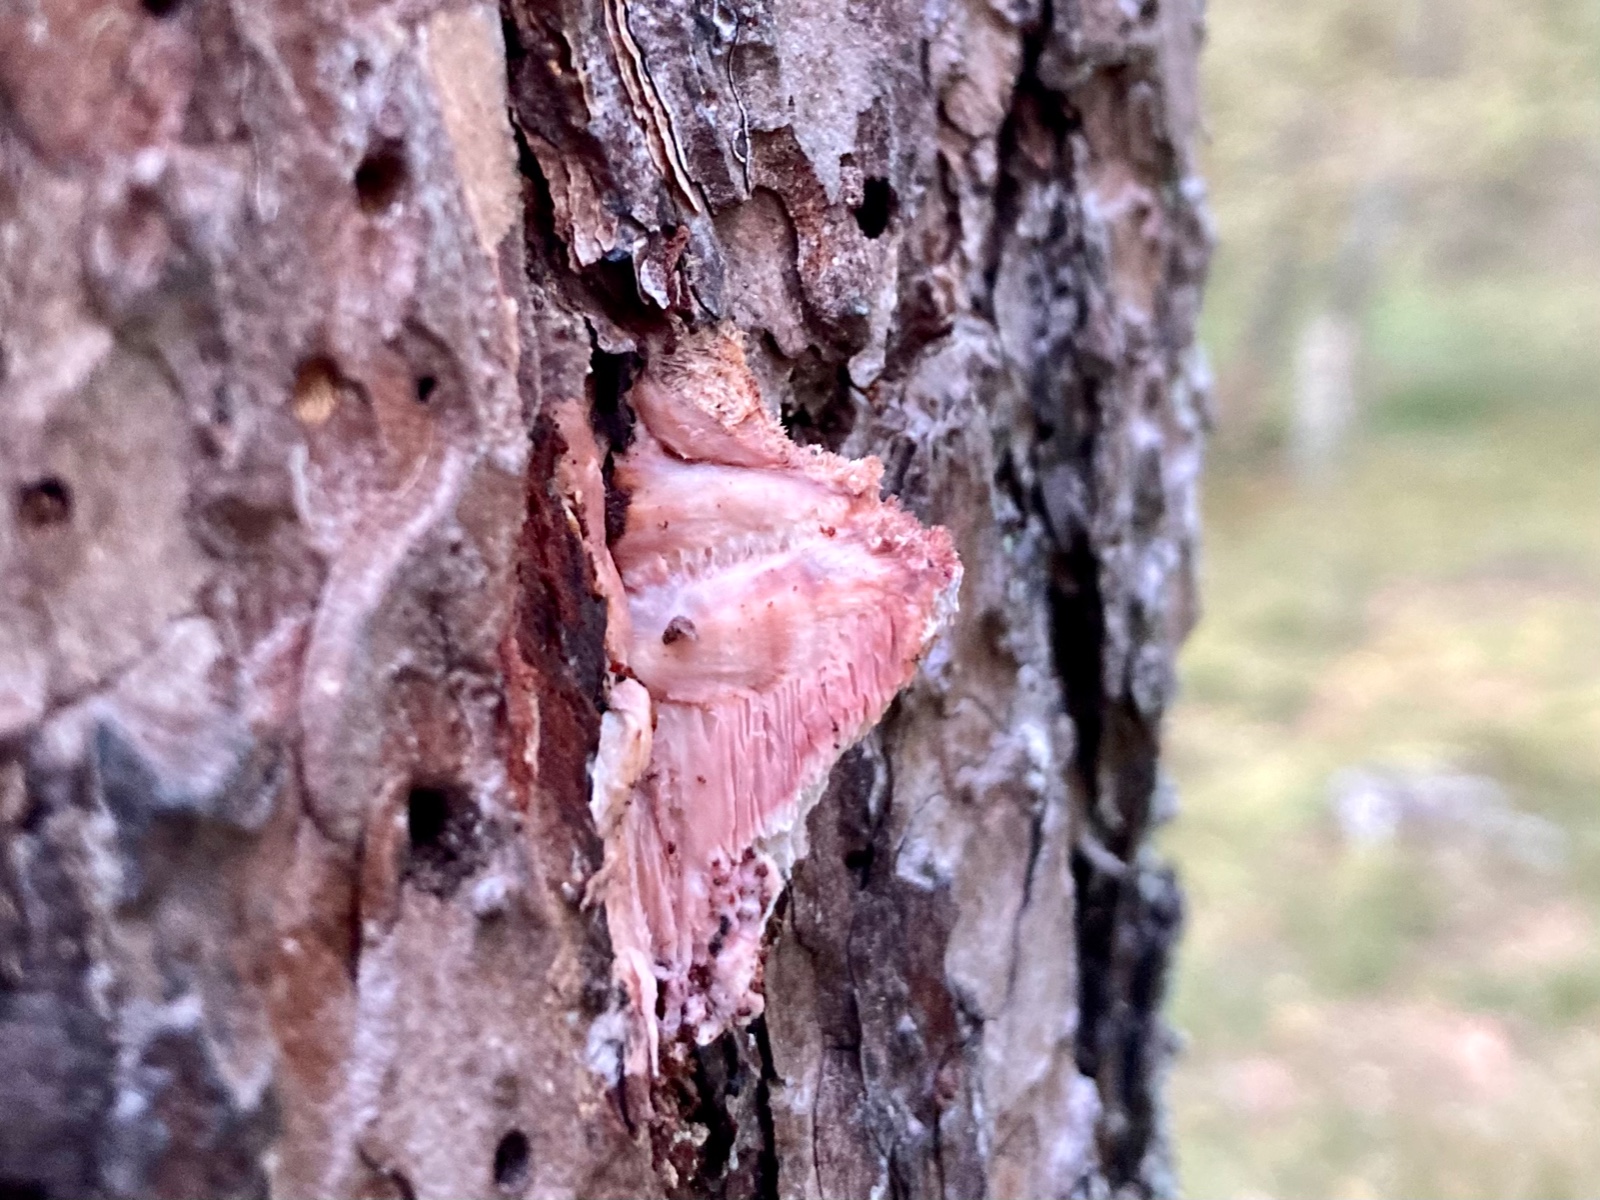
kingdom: Fungi
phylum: Basidiomycota
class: Agaricomycetes
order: Polyporales
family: Irpicaceae
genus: Leptoporus
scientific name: Leptoporus mollis
